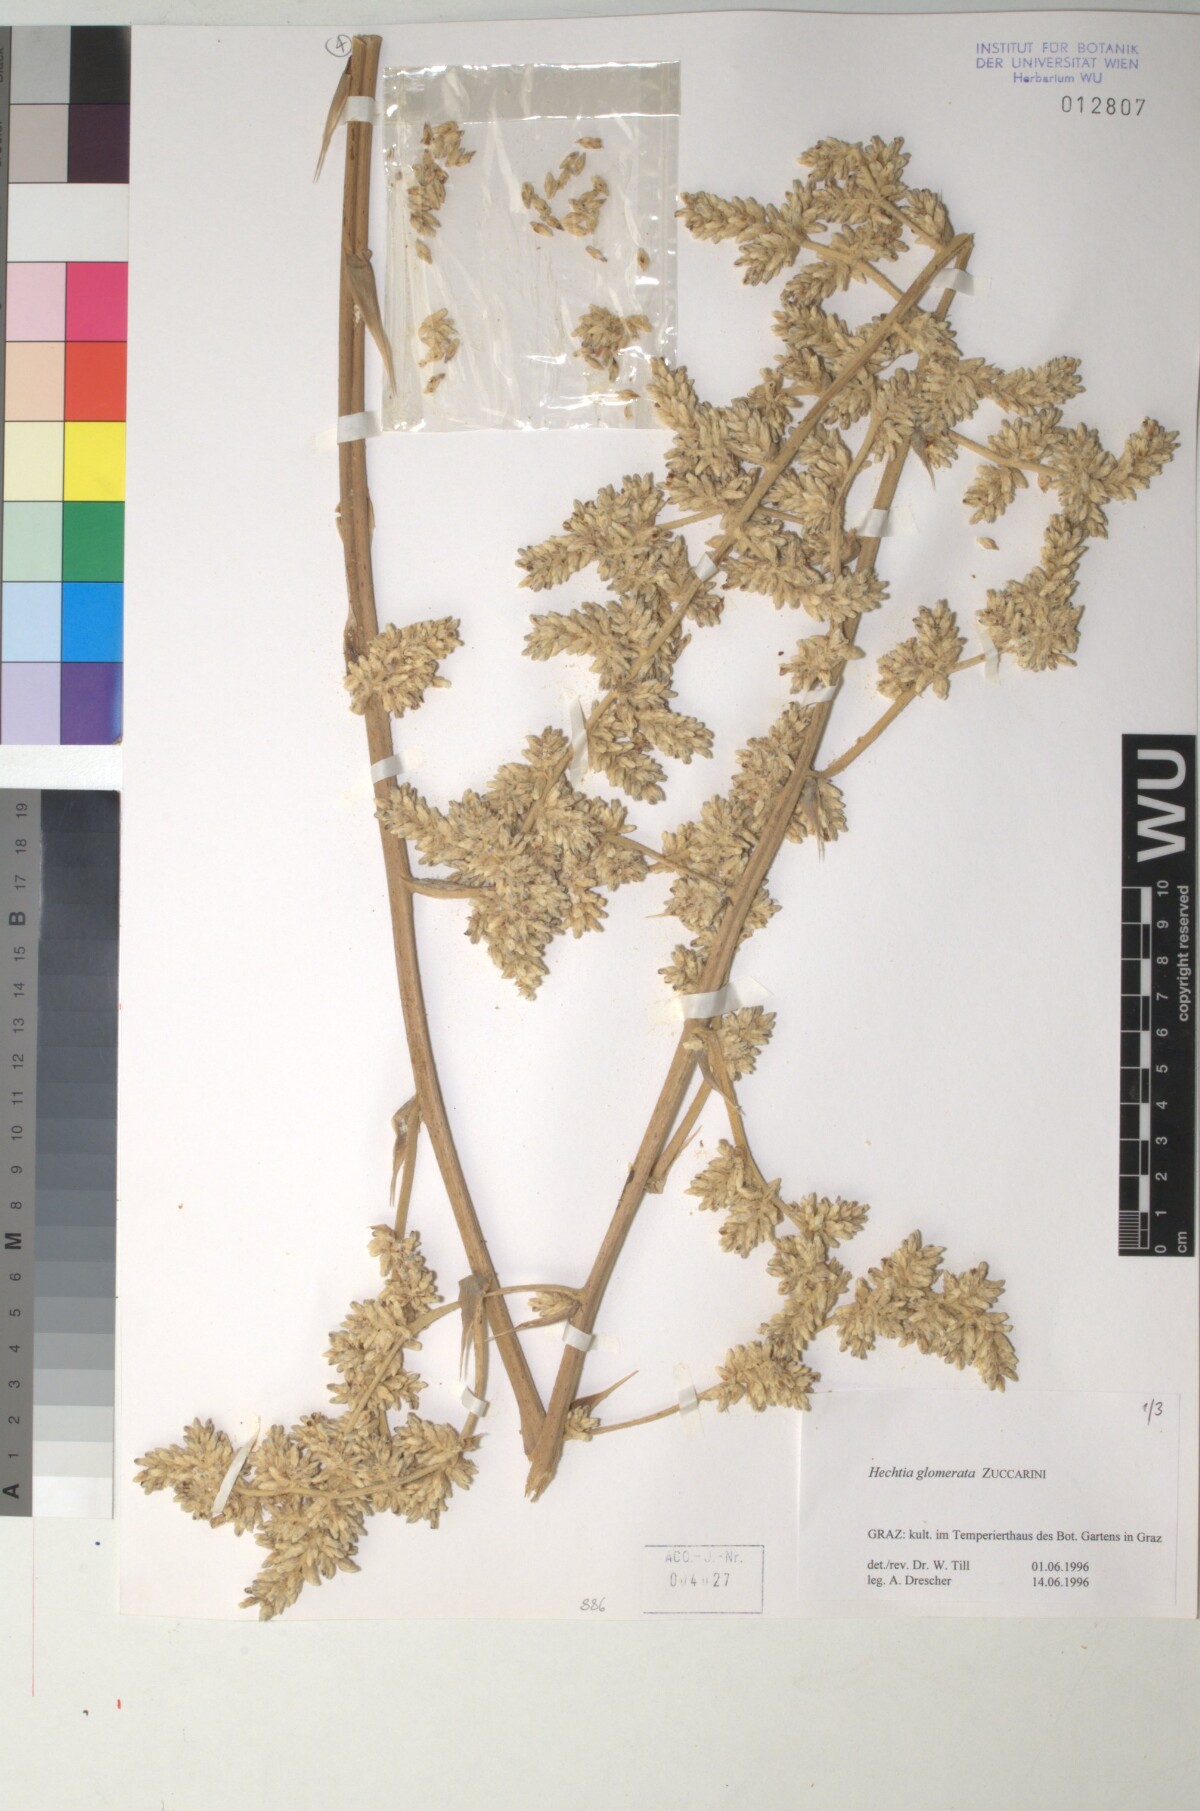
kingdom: Plantae
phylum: Tracheophyta
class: Liliopsida
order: Poales
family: Bromeliaceae
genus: Hechtia
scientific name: Hechtia glomerata
